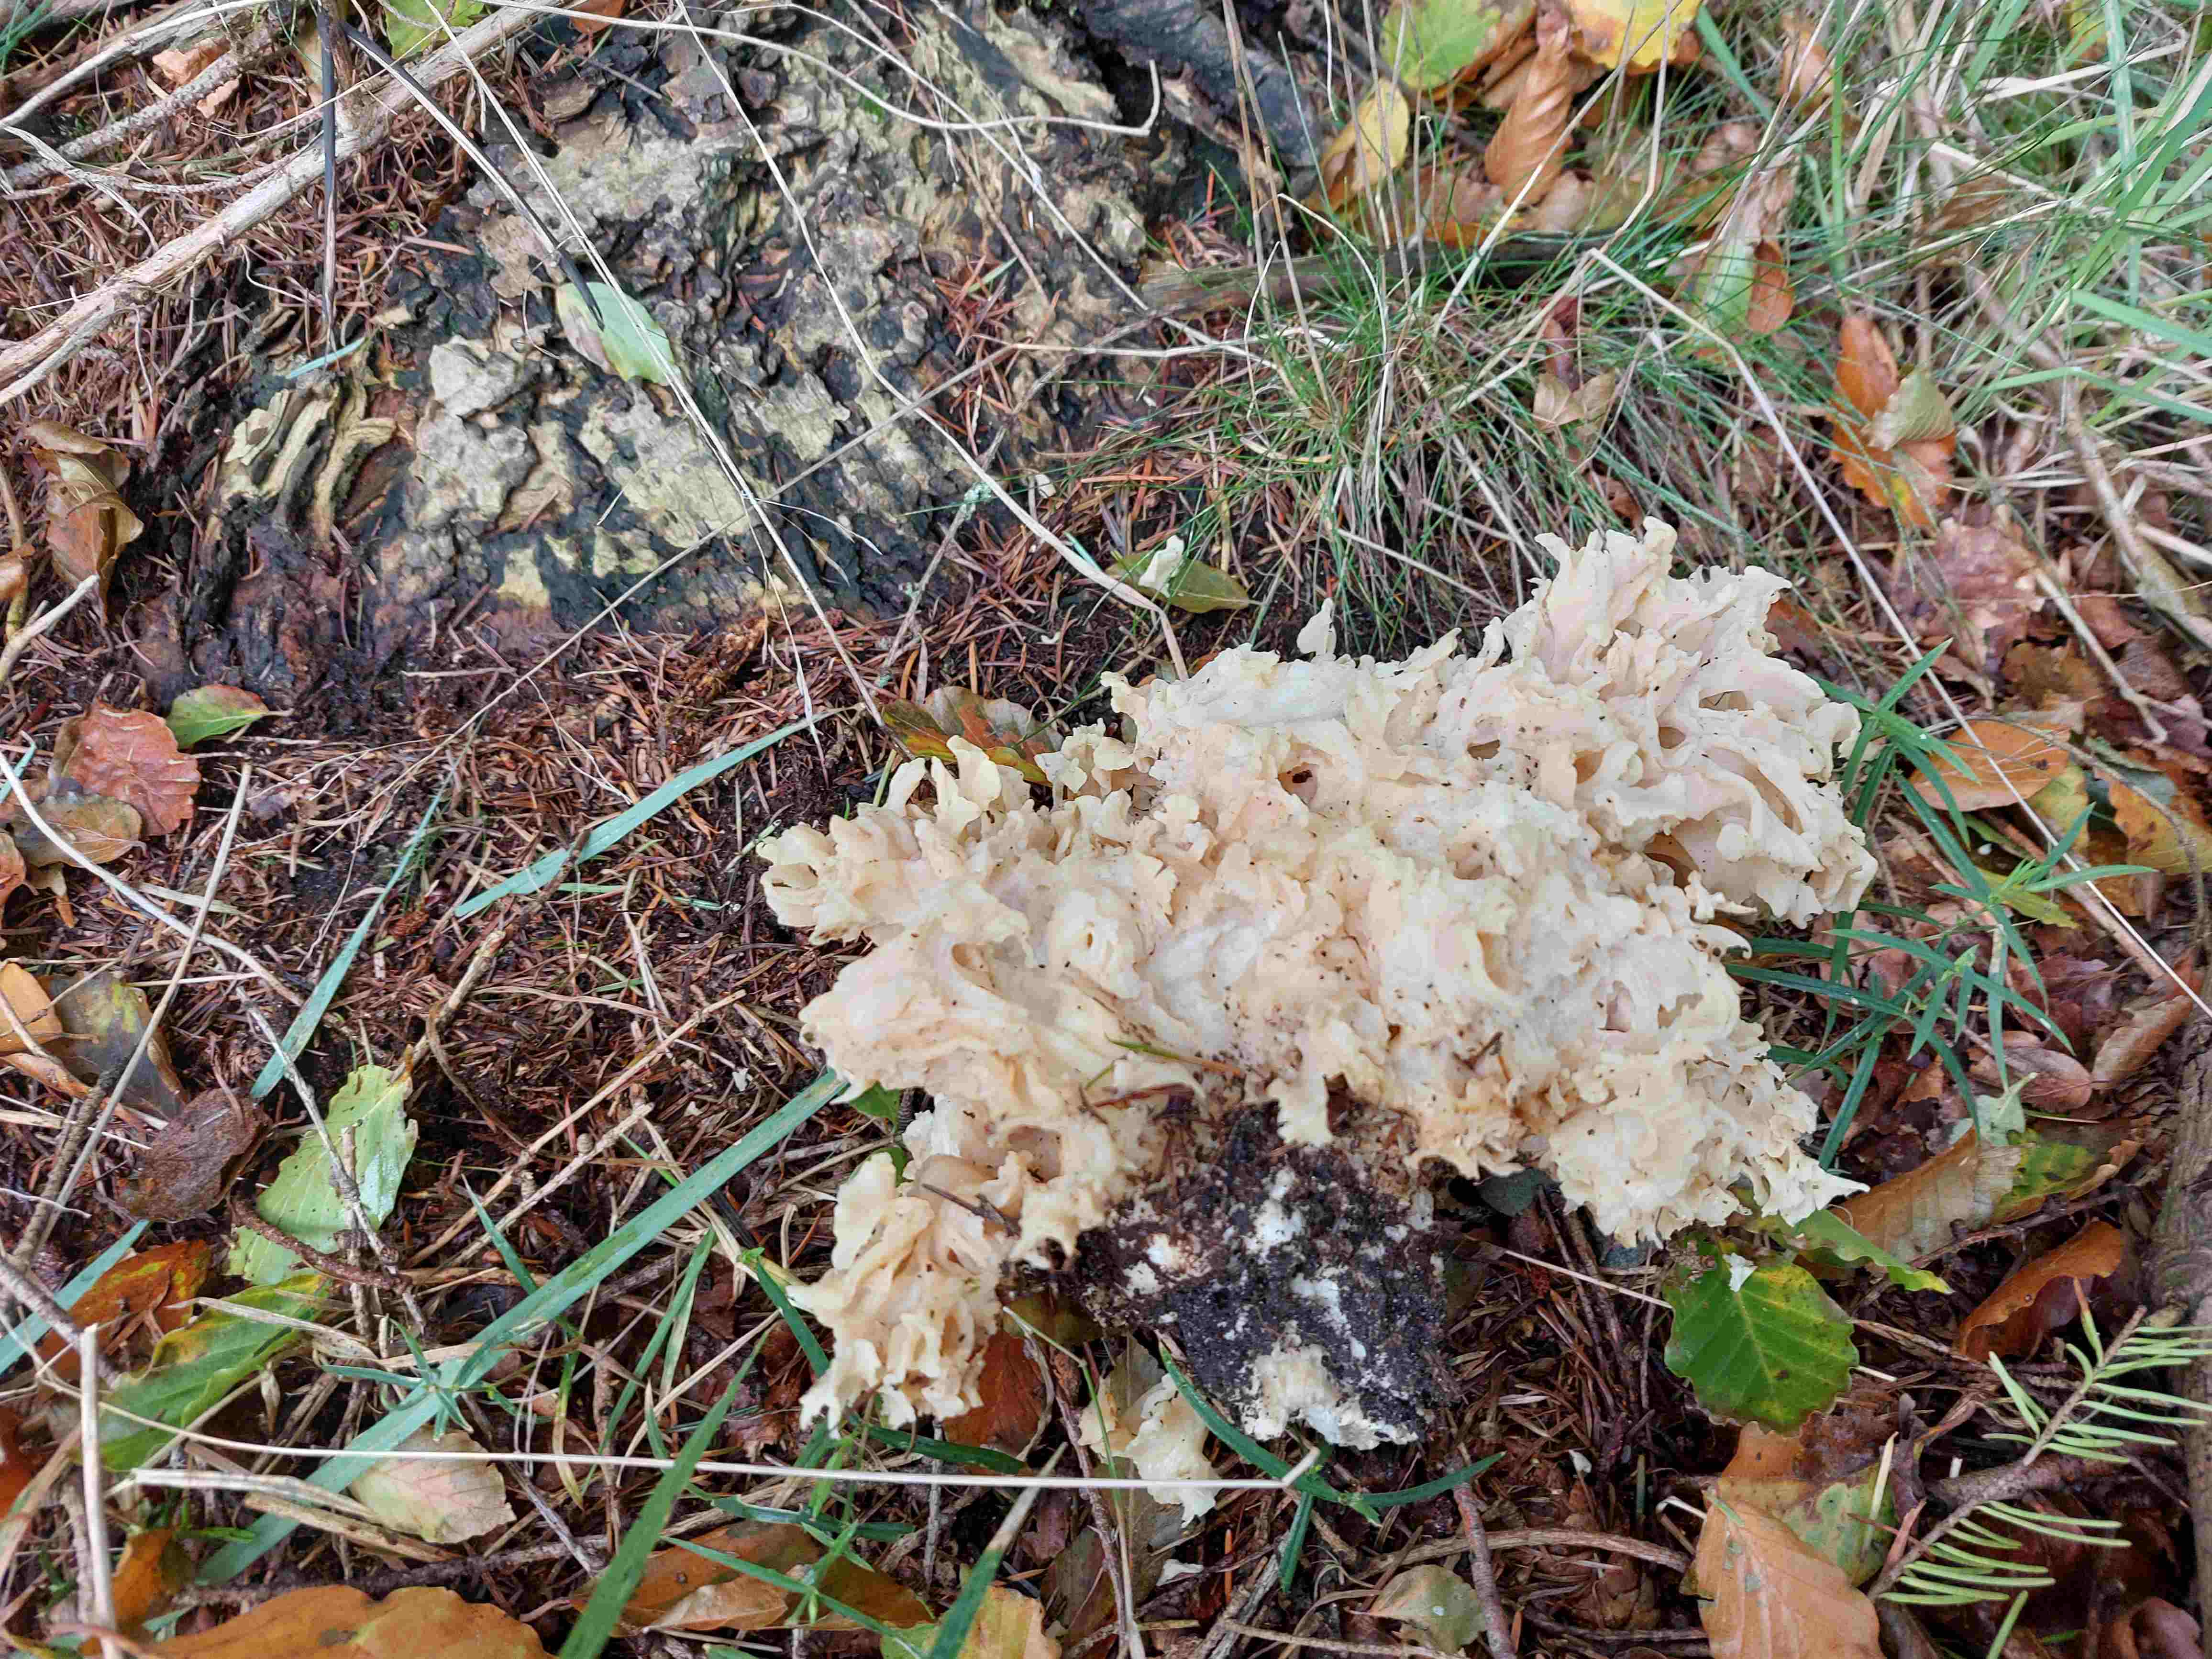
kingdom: Fungi
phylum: Basidiomycota
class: Agaricomycetes
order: Polyporales
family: Sparassidaceae
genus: Sparassis
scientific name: Sparassis crispa
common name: kruset blomkålssvamp
